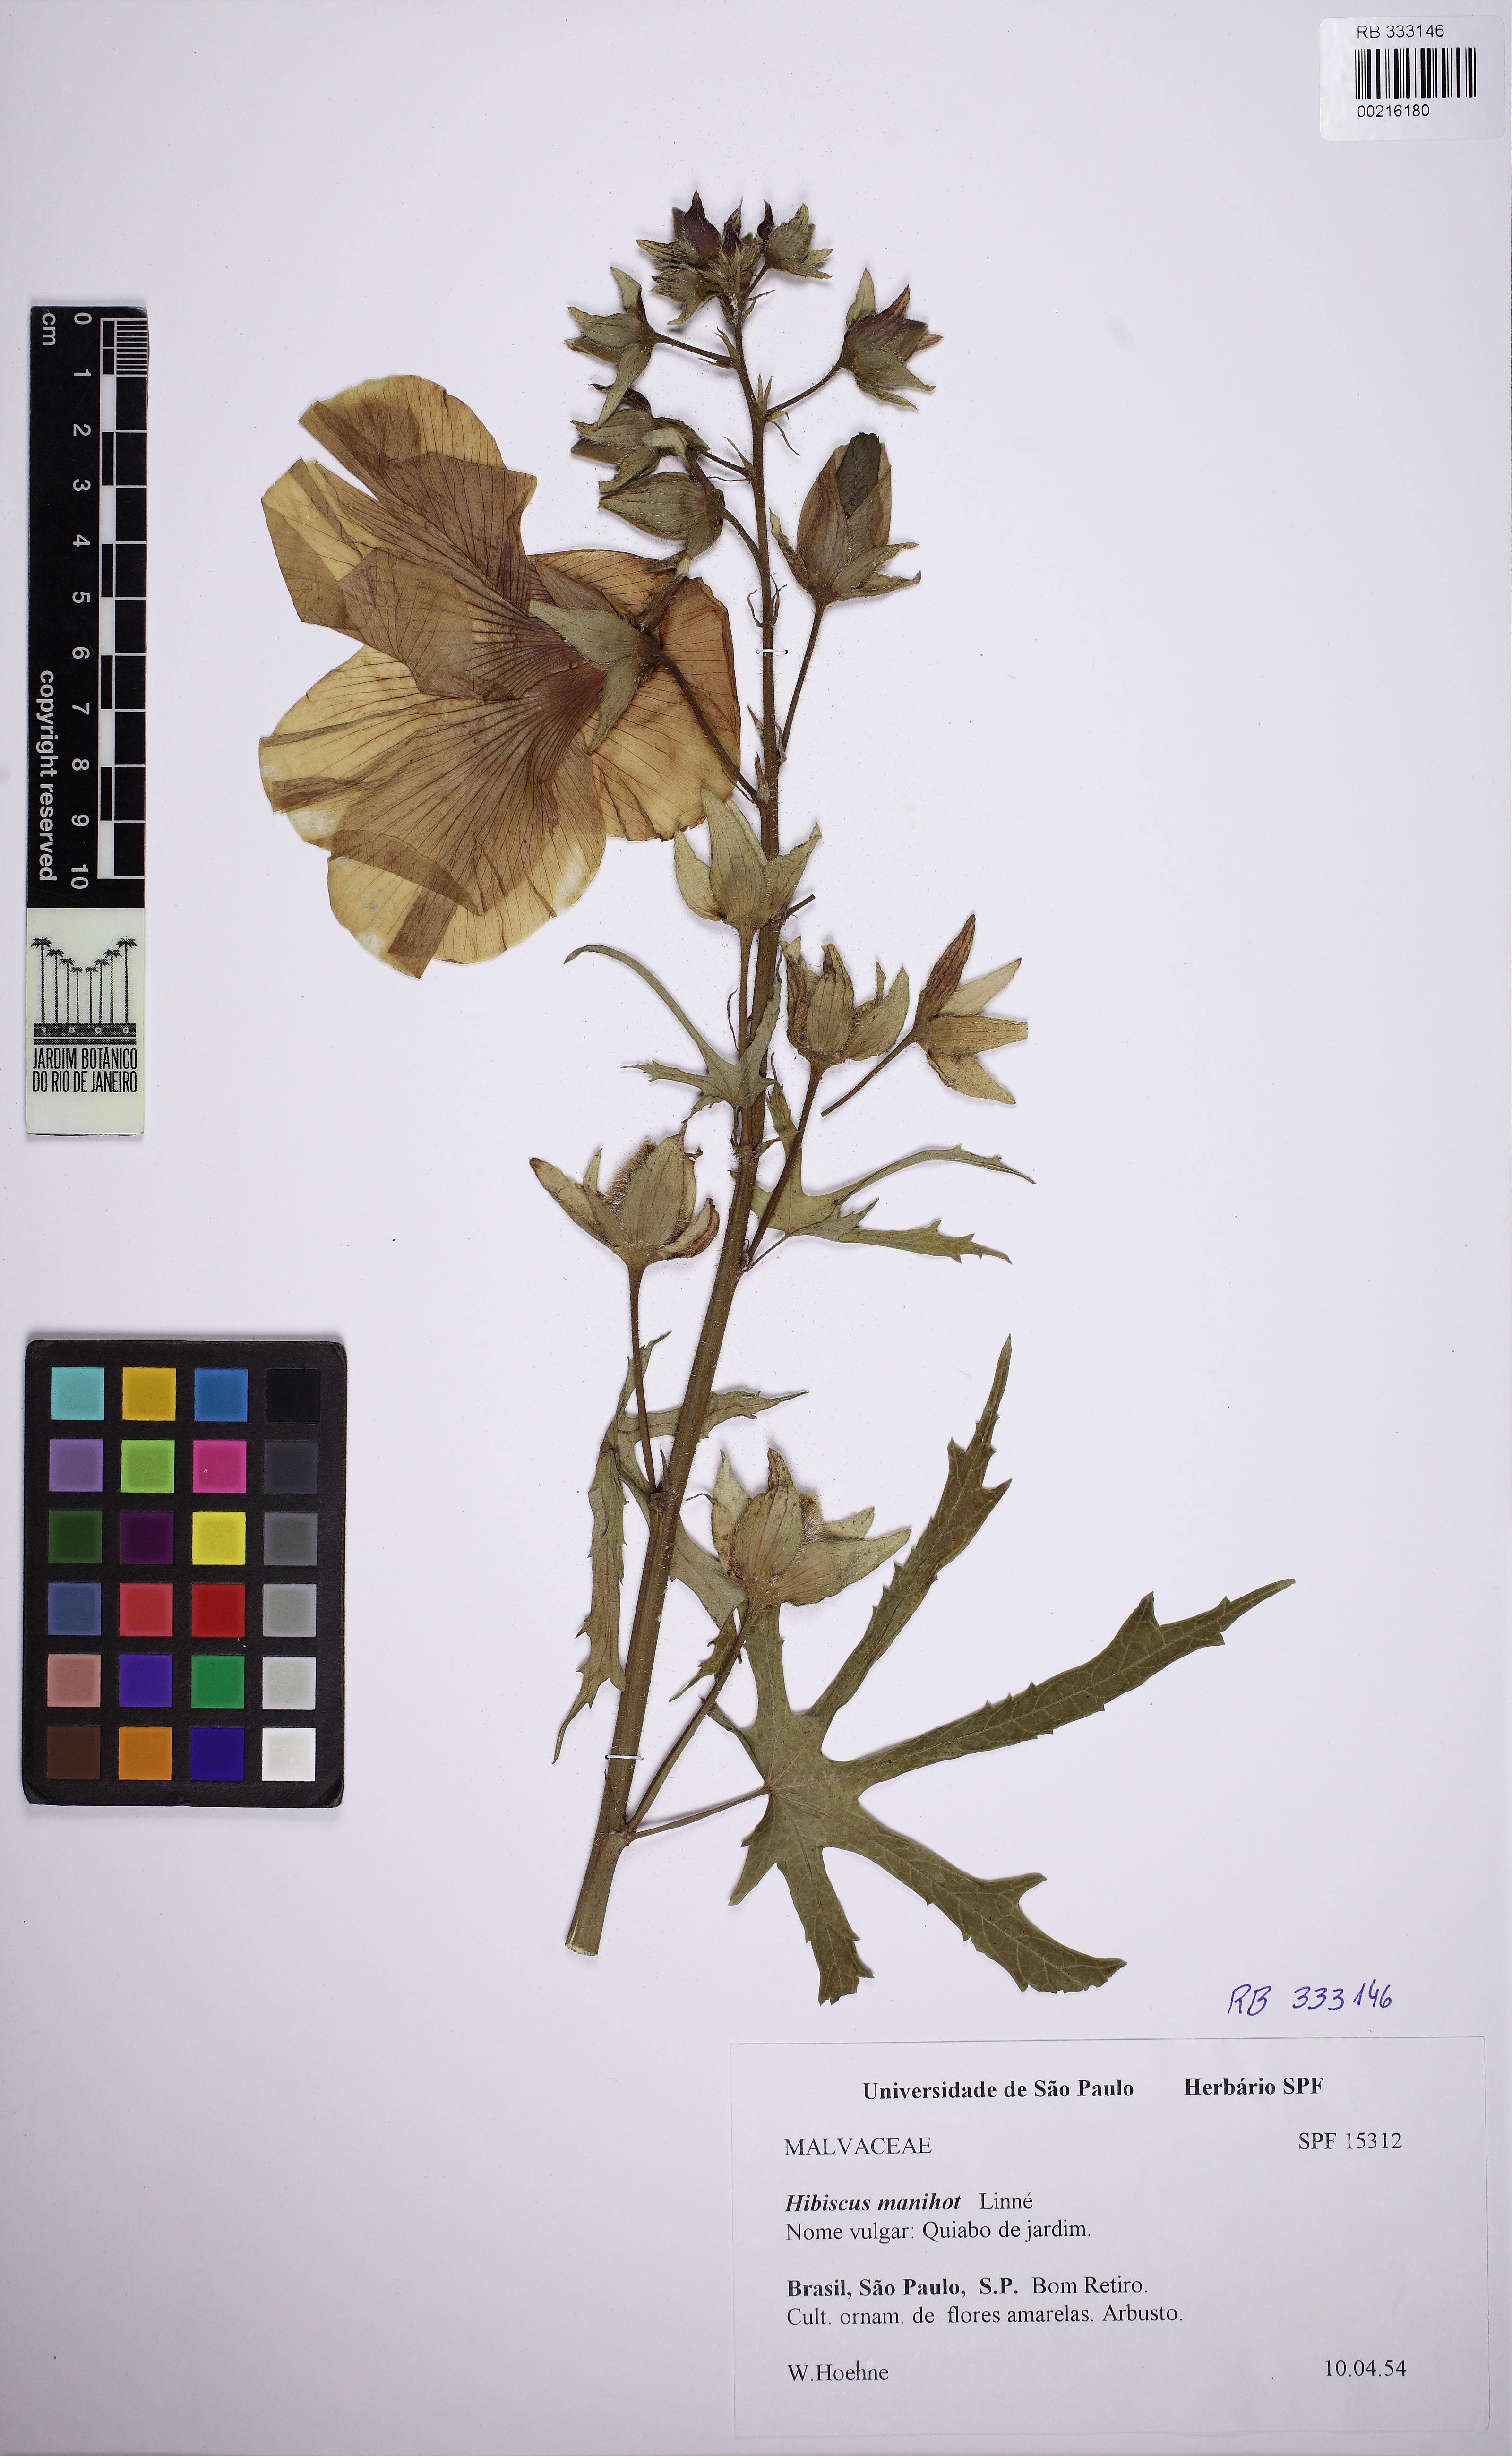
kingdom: Plantae
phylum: Tracheophyta
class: Magnoliopsida
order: Malvales
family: Malvaceae
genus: Abelmoschus
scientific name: Abelmoschus manihot
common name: Sunset muskmallow
